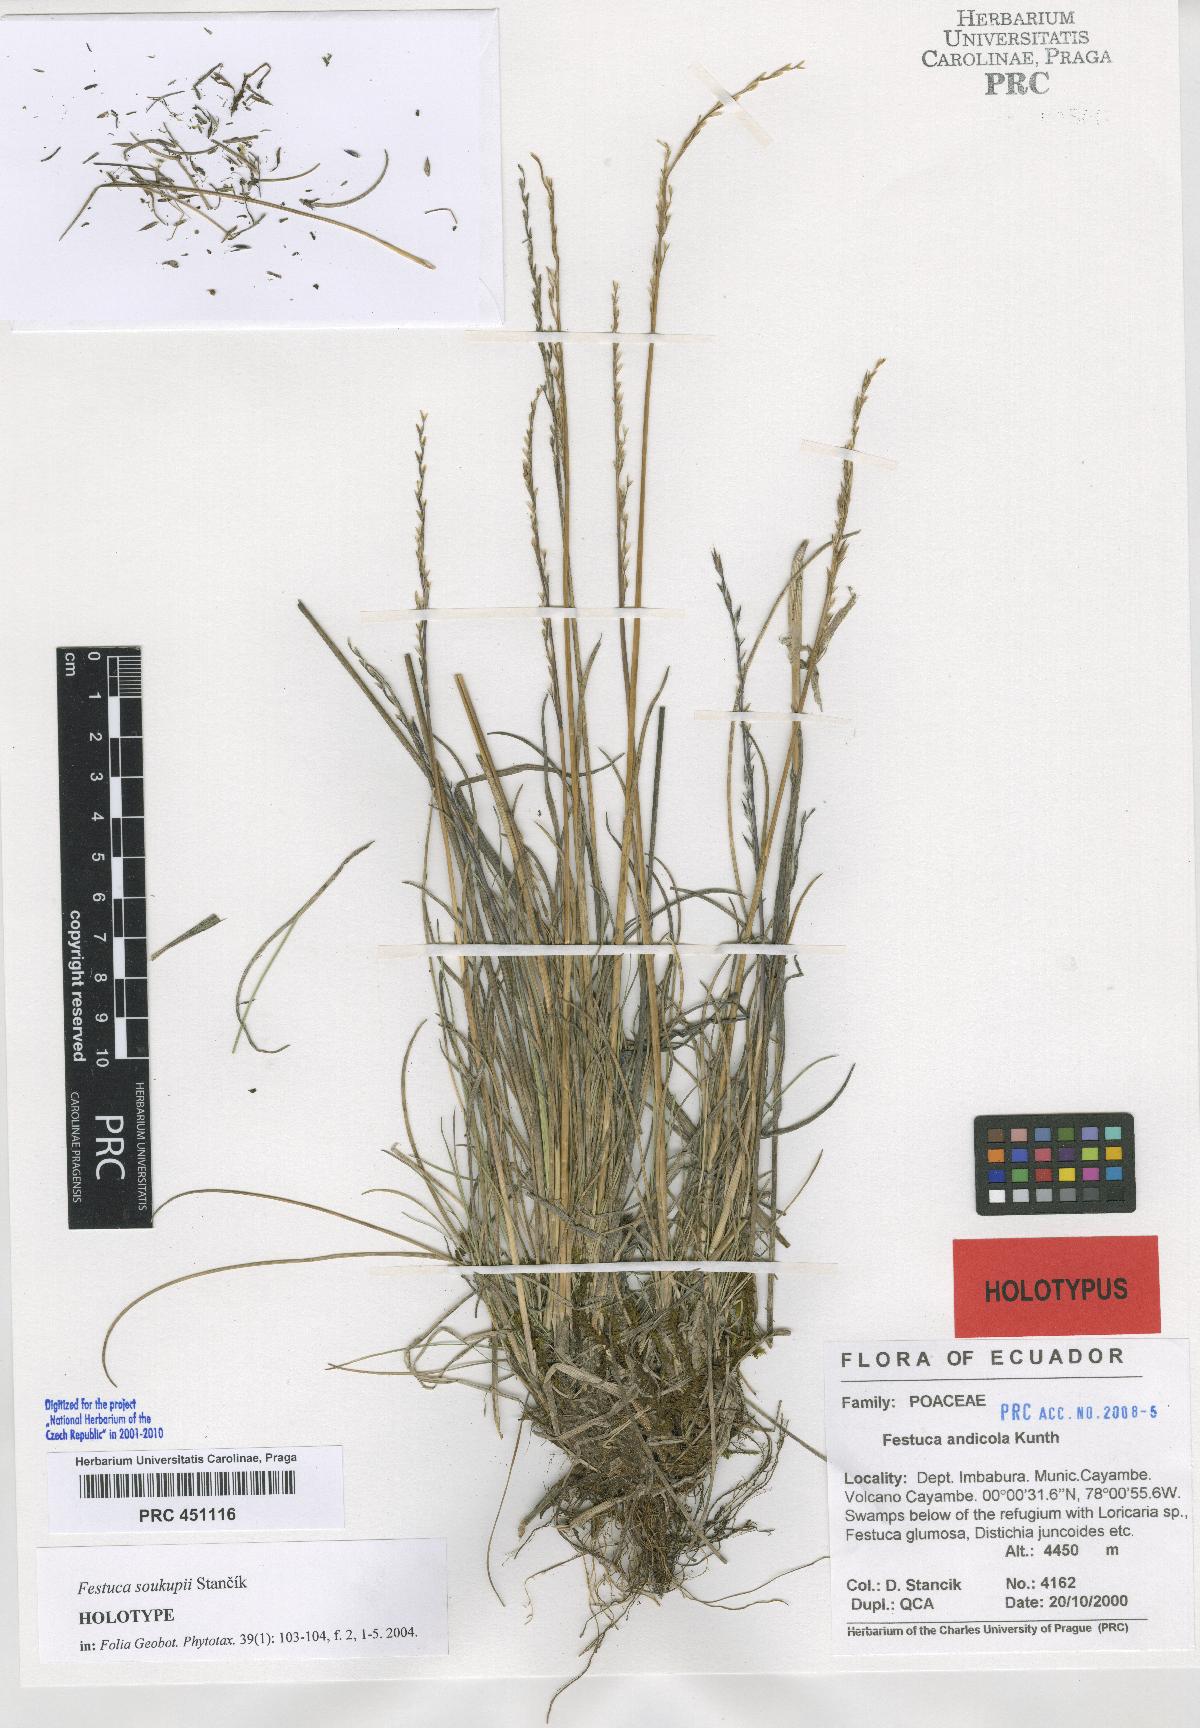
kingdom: Plantae
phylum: Tracheophyta
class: Liliopsida
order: Poales
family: Poaceae
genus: Festuca
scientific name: Festuca soukupii
